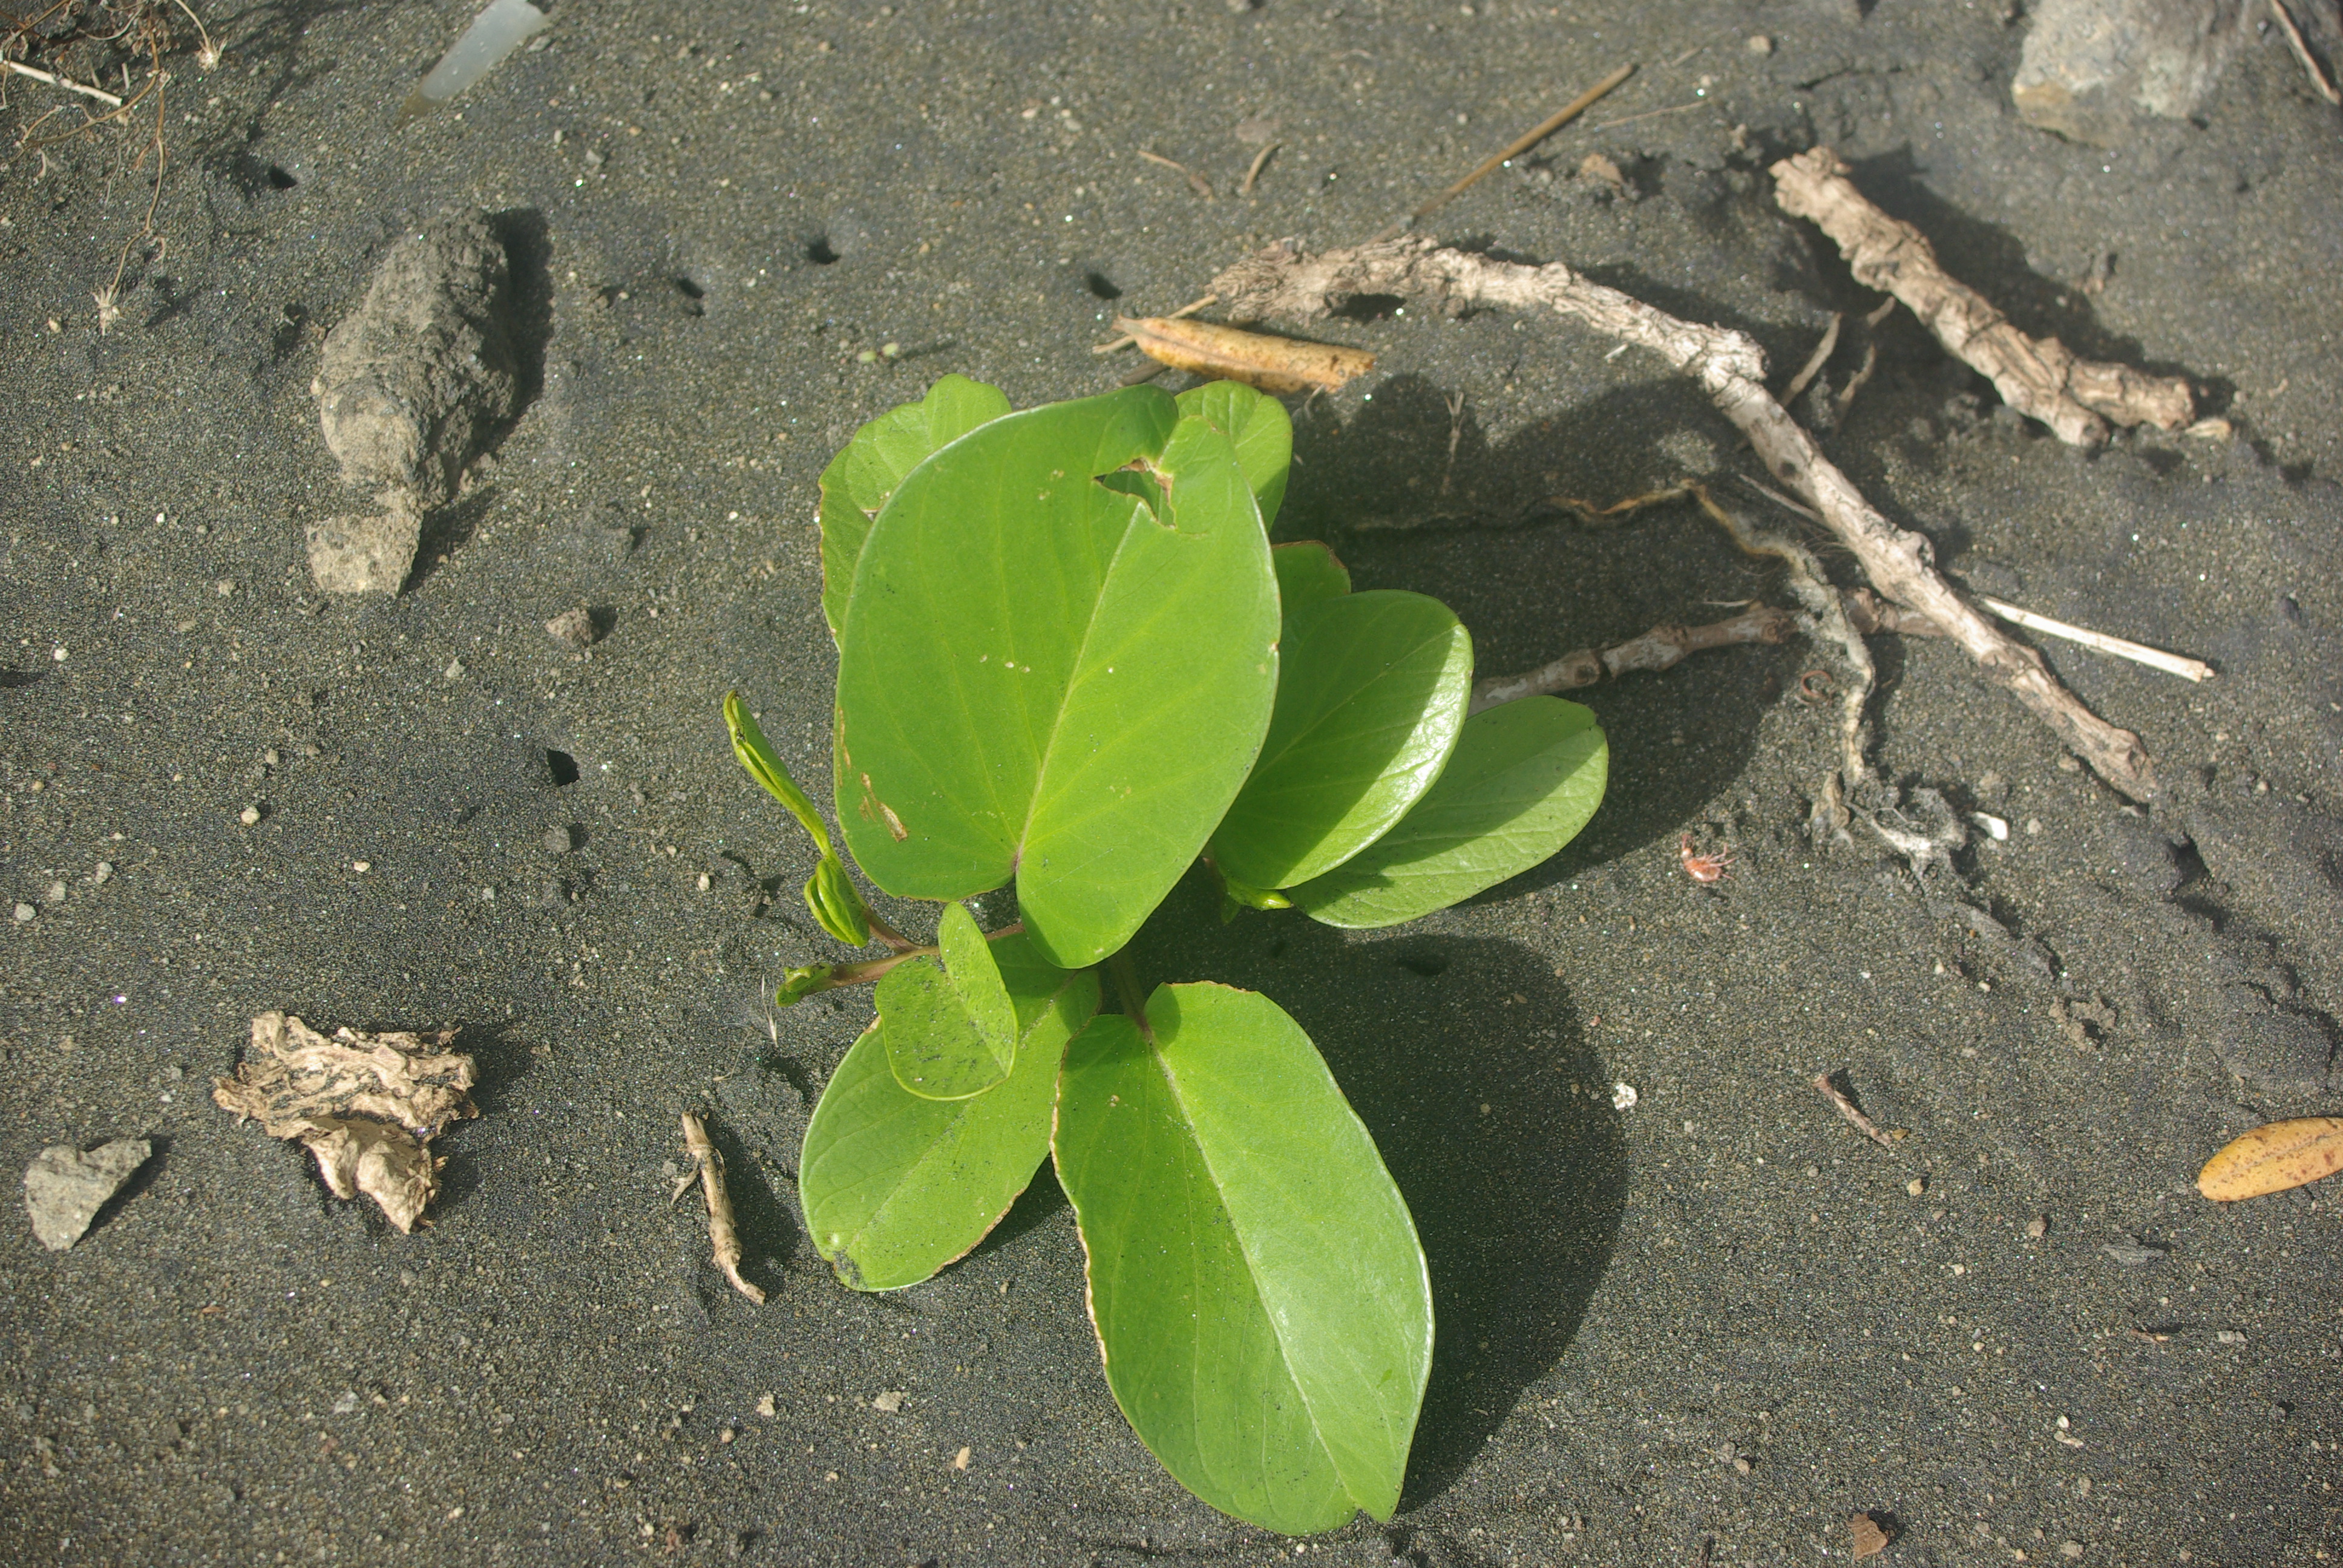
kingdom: Plantae
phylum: Tracheophyta
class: Magnoliopsida
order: Solanales
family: Convolvulaceae
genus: Ipomoea
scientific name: Ipomoea pes-caprae
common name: Beach morning glory
